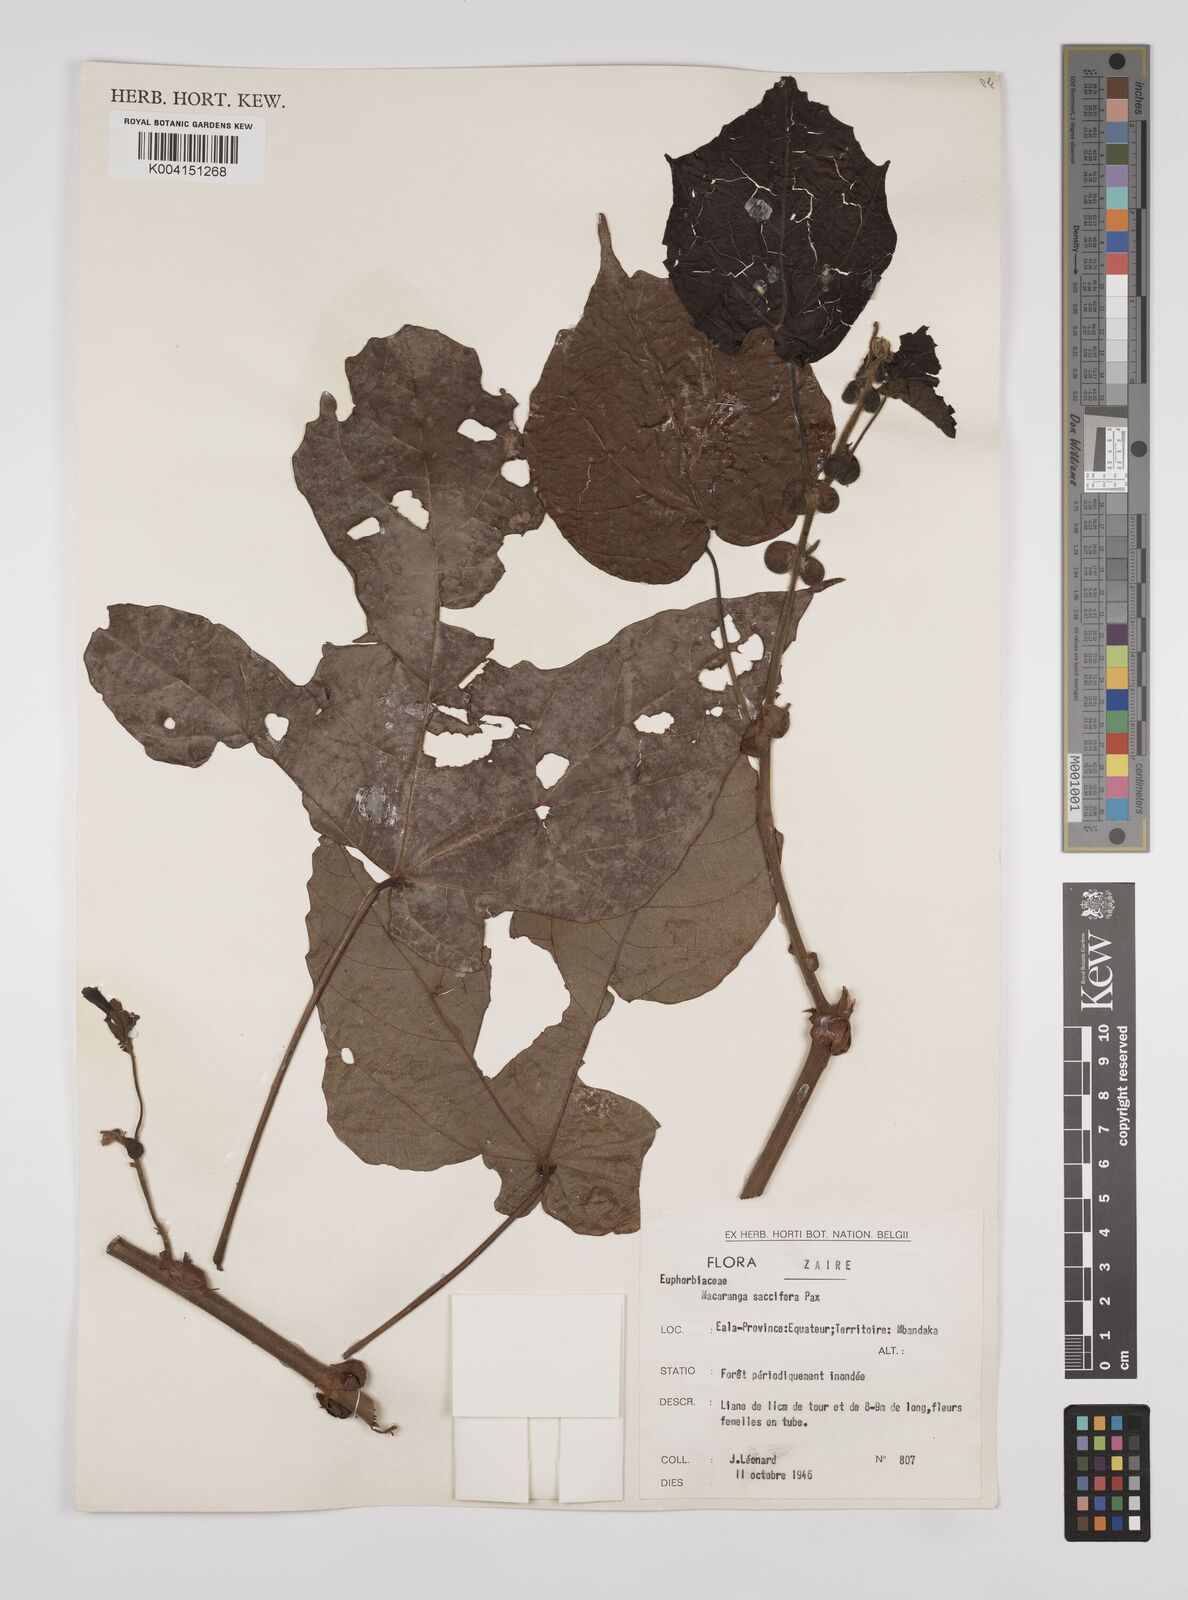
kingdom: Plantae
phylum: Tracheophyta
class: Magnoliopsida
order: Malpighiales
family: Euphorbiaceae
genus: Macaranga
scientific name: Macaranga saccifera
